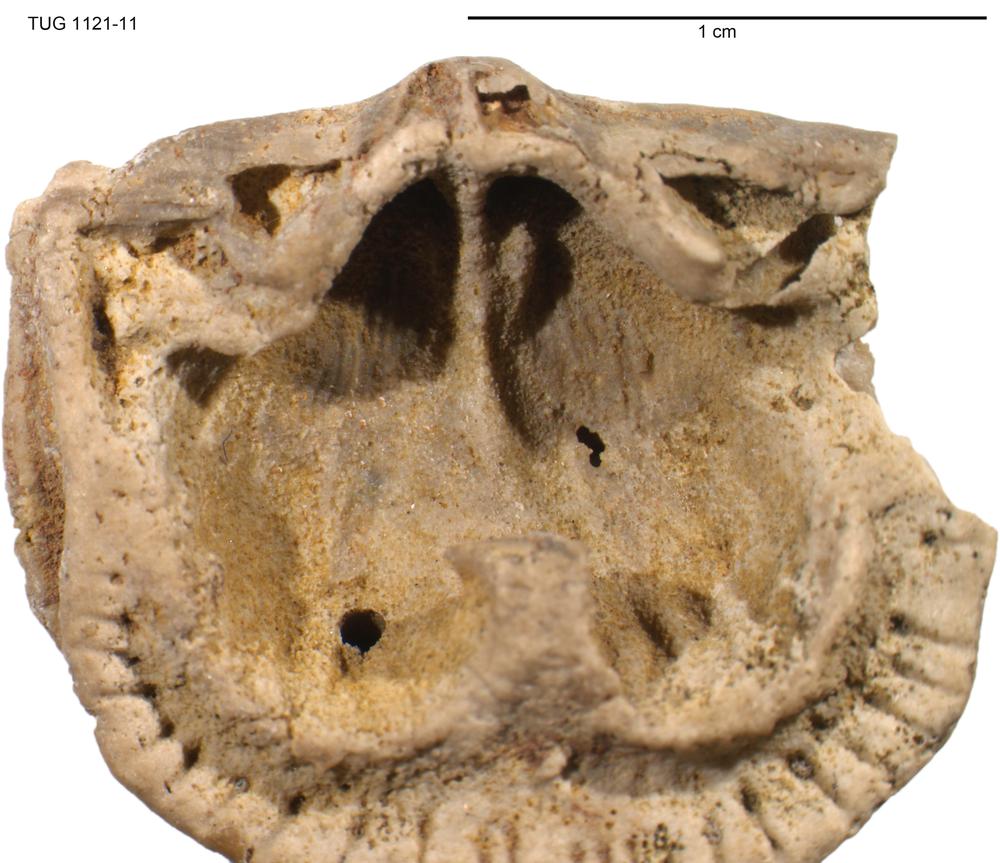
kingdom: Animalia
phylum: Brachiopoda
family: Gonambonitidae
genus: Estlandia
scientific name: Estlandia Orthisina marginata
